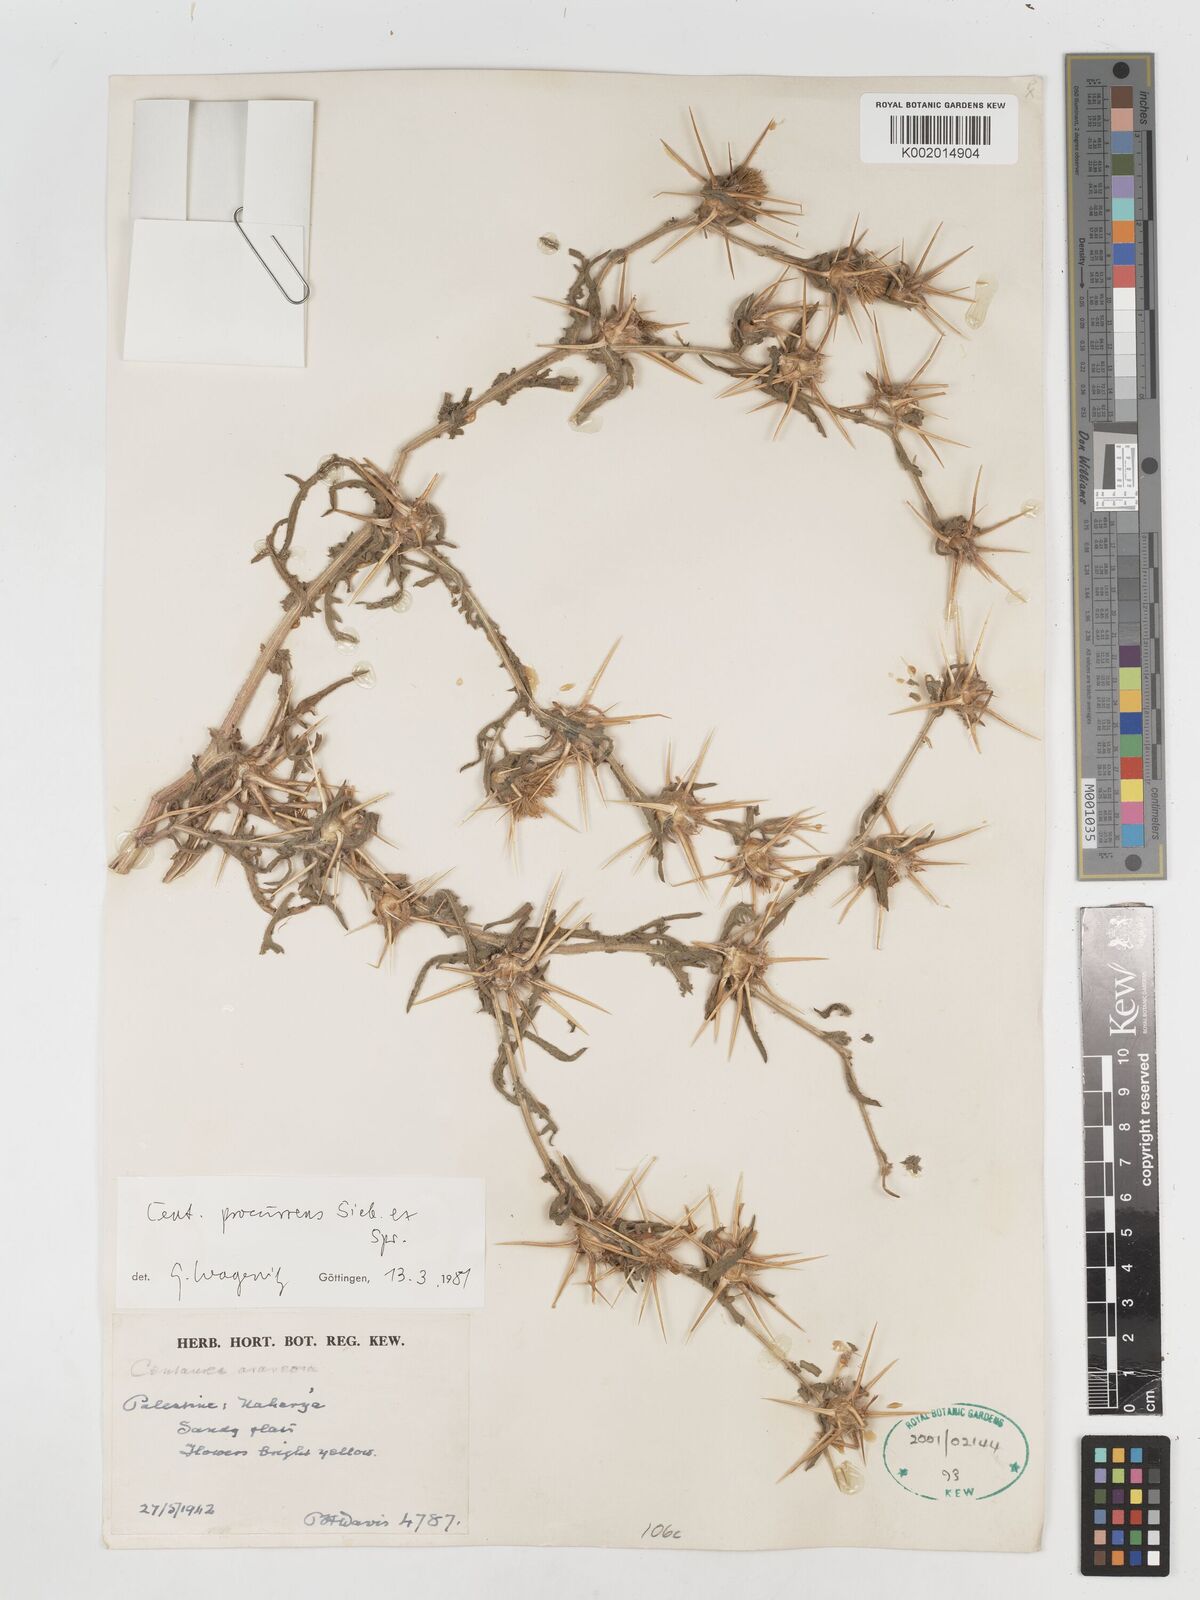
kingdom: Plantae
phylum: Tracheophyta
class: Magnoliopsida
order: Asterales
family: Asteraceae
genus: Centaurea
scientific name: Centaurea procurrens
